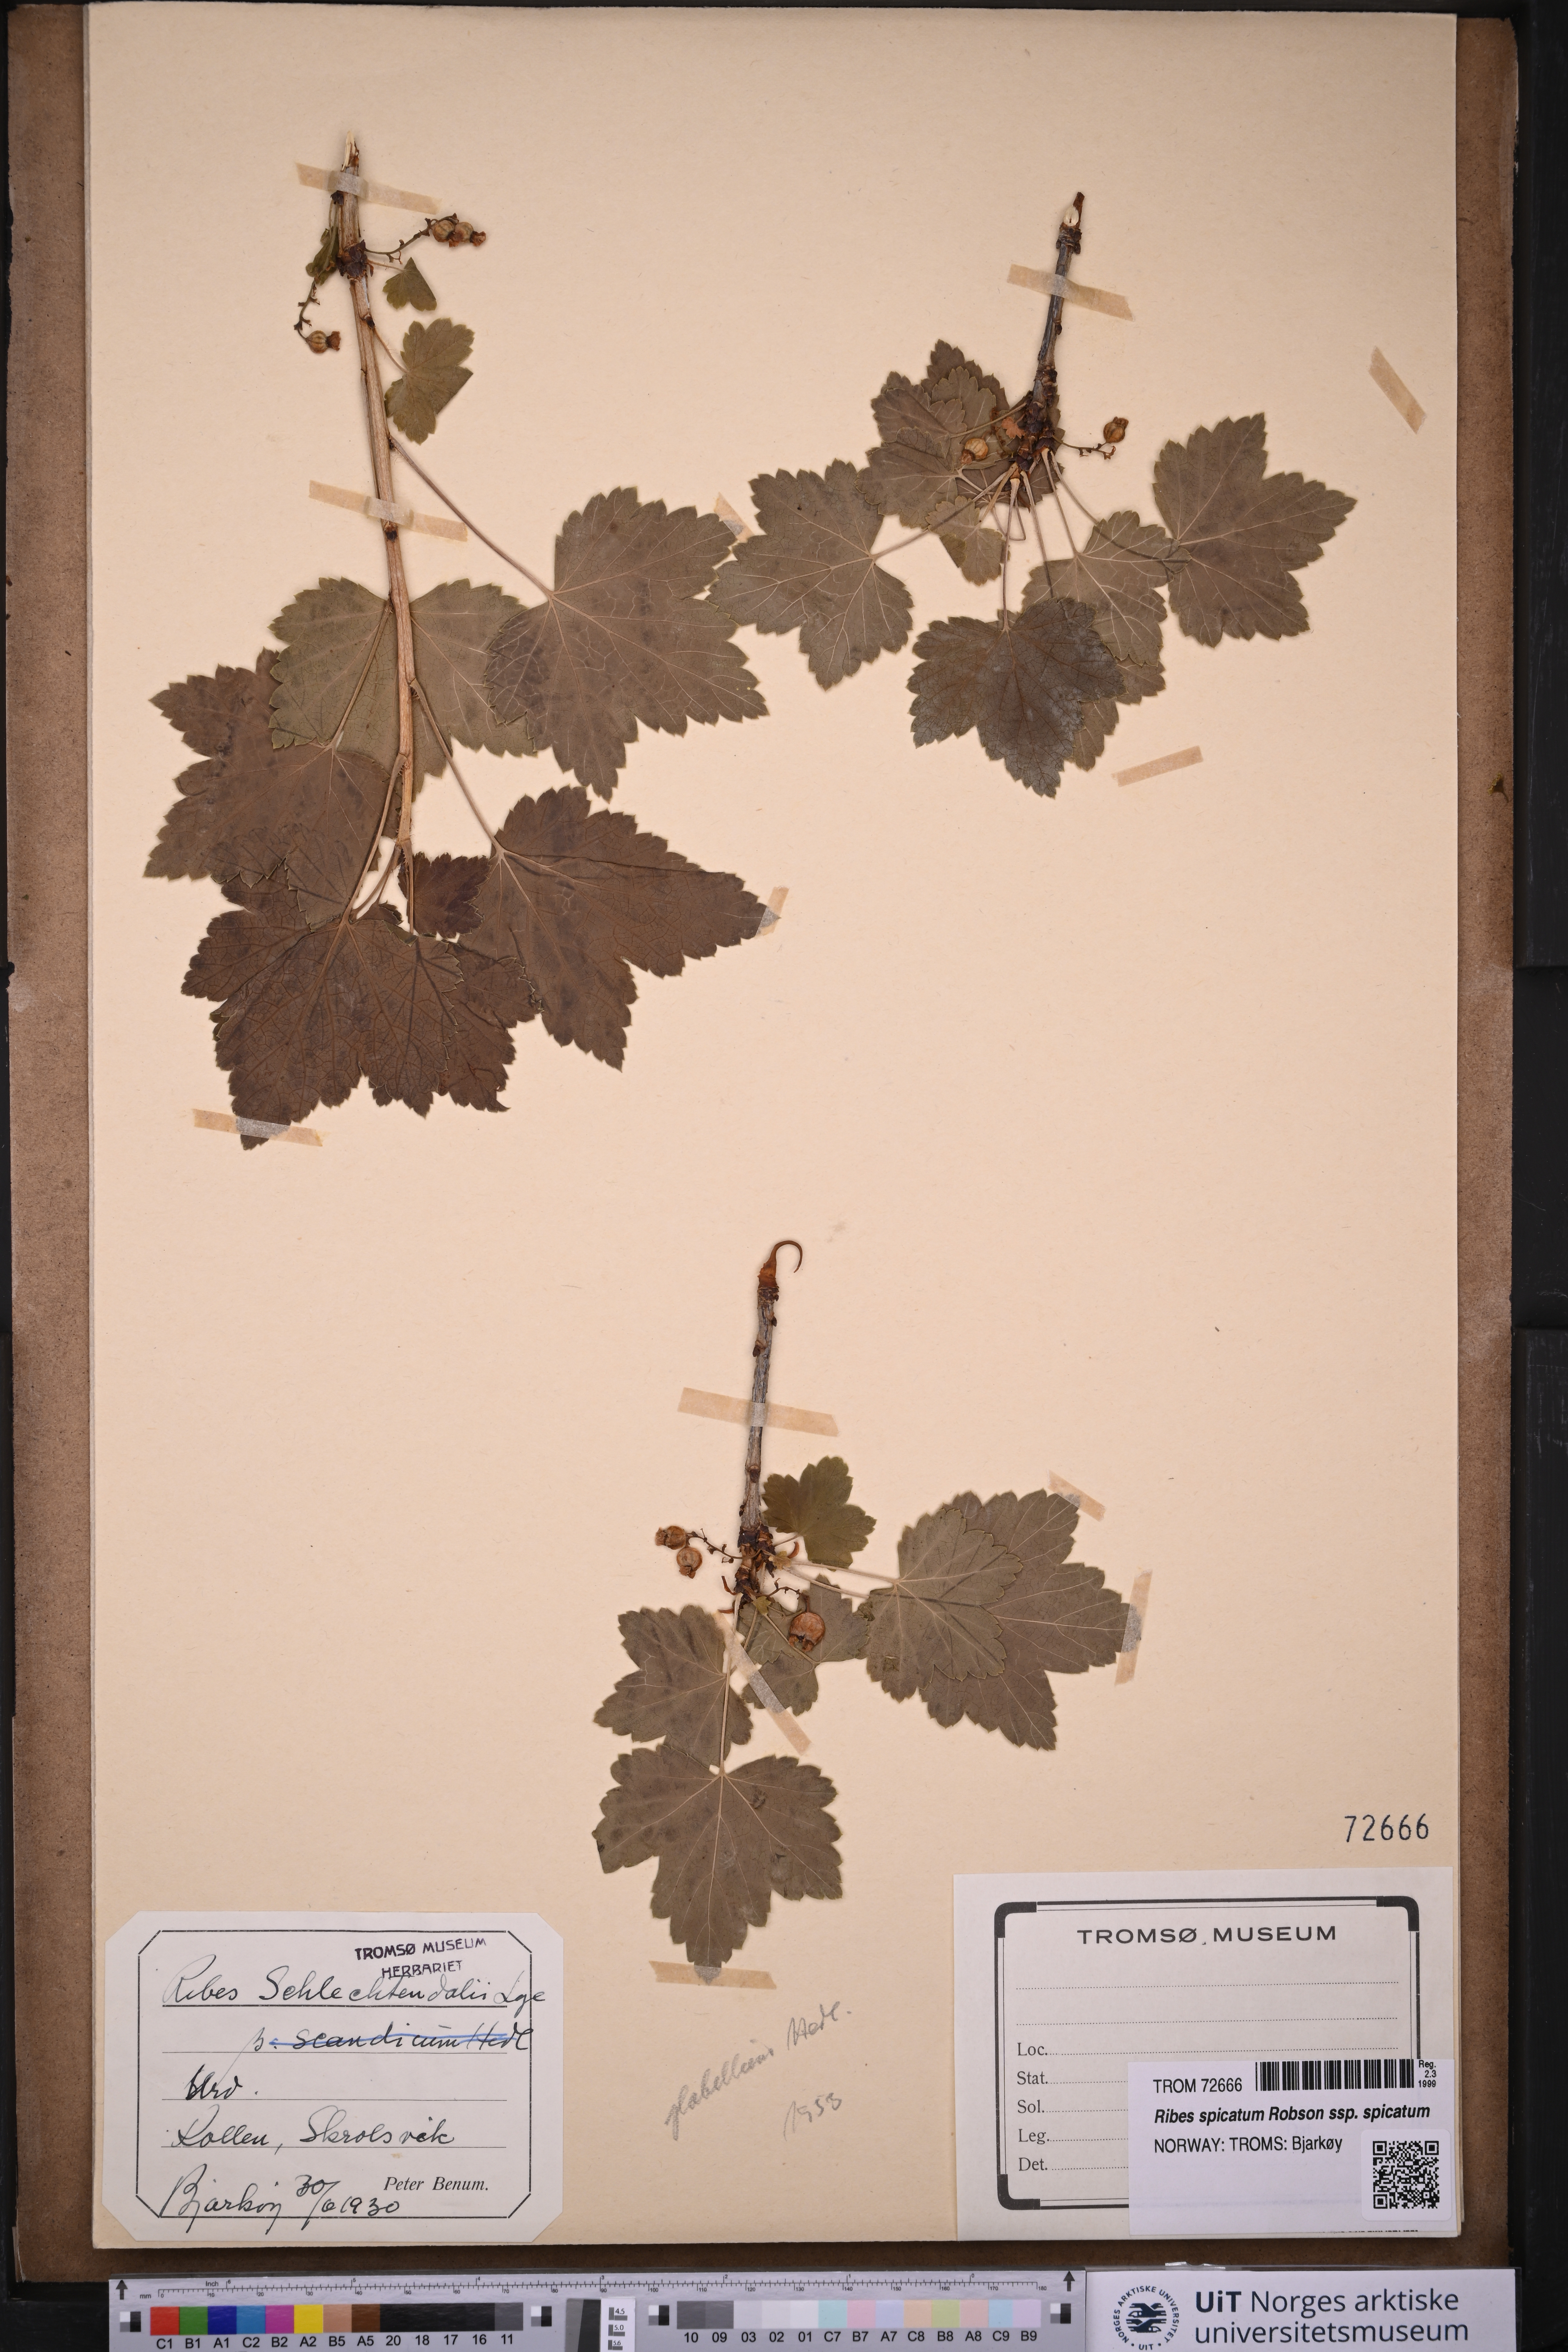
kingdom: Plantae
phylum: Tracheophyta
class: Magnoliopsida
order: Saxifragales
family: Grossulariaceae
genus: Ribes
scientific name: Ribes spicatum
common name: Downy currant
